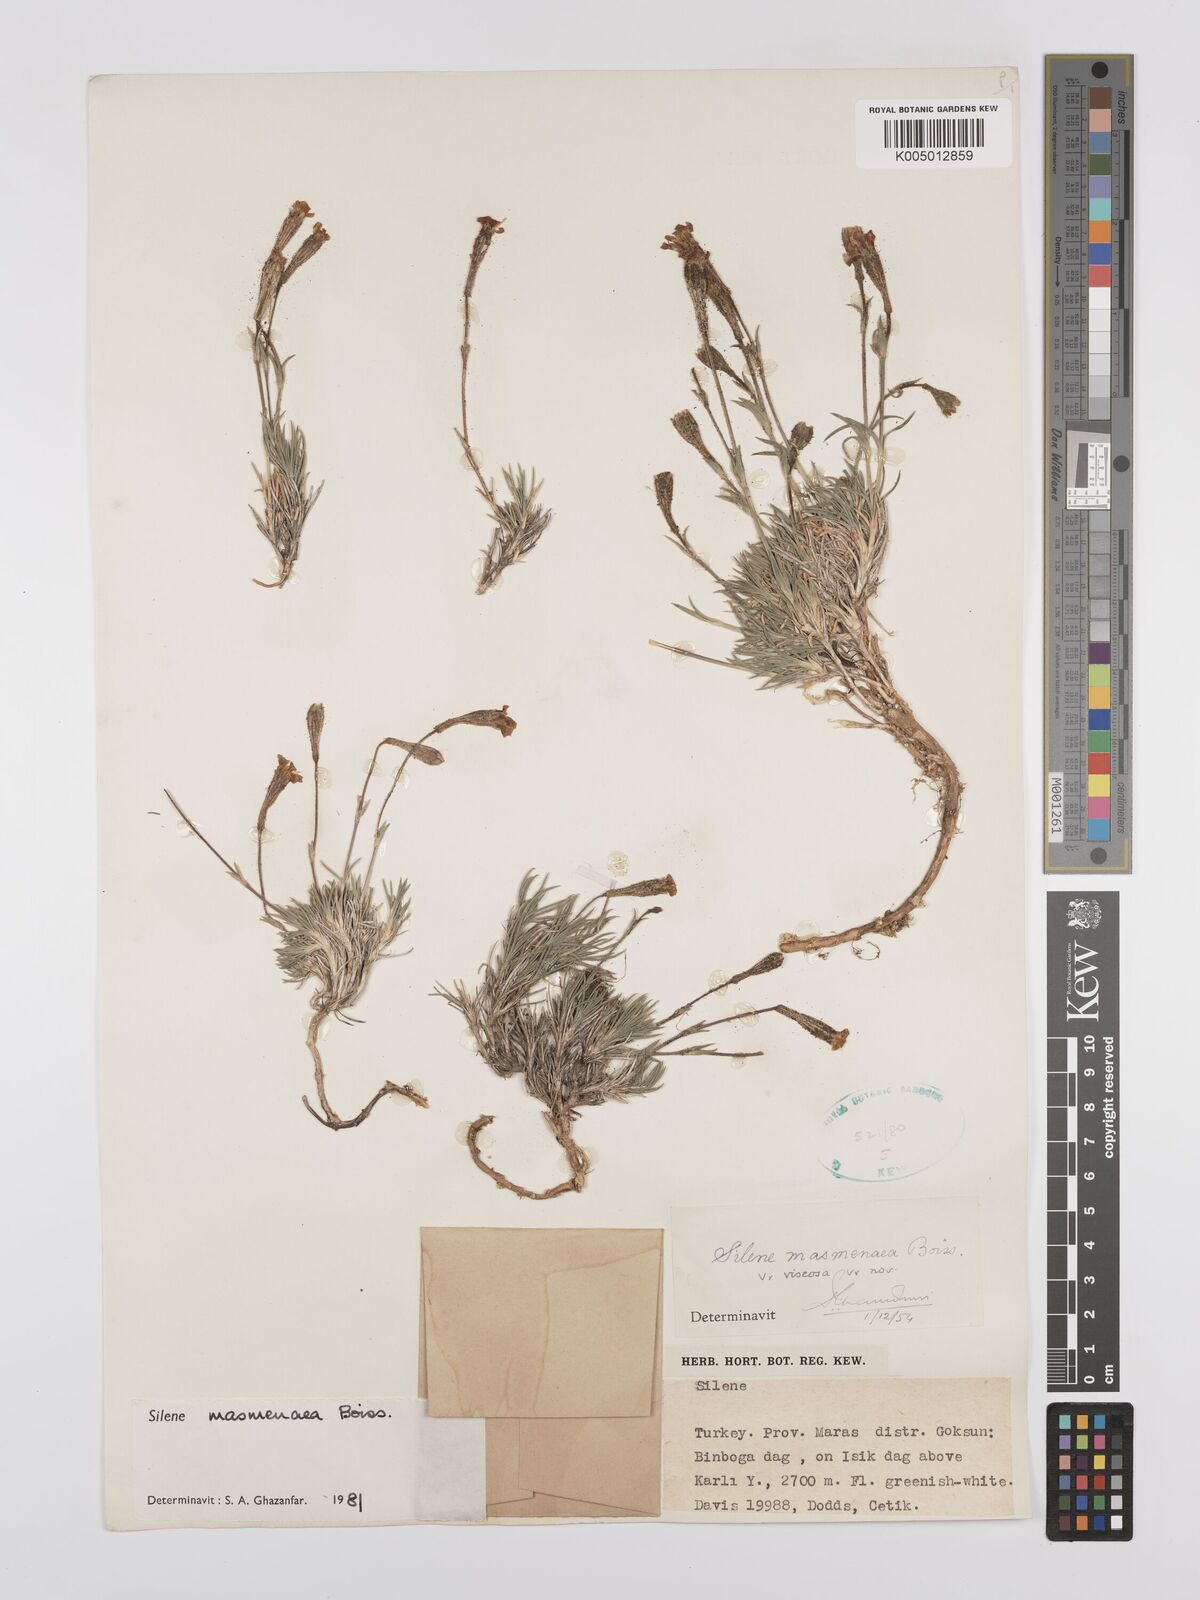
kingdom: Plantae
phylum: Tracheophyta
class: Magnoliopsida
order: Caryophyllales
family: Caryophyllaceae
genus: Silene
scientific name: Silene caryophylloides
